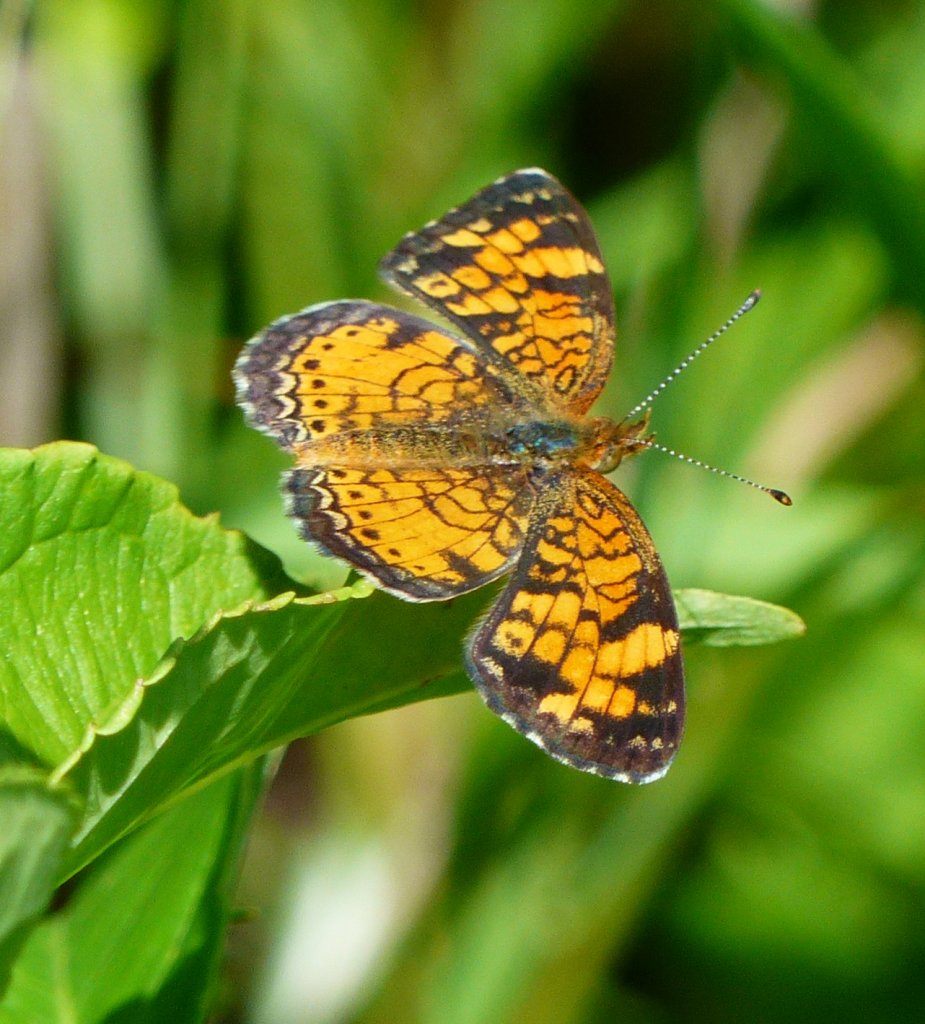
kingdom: Animalia
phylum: Arthropoda
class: Insecta
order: Lepidoptera
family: Nymphalidae
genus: Phyciodes
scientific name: Phyciodes tharos
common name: Northern Crescent
